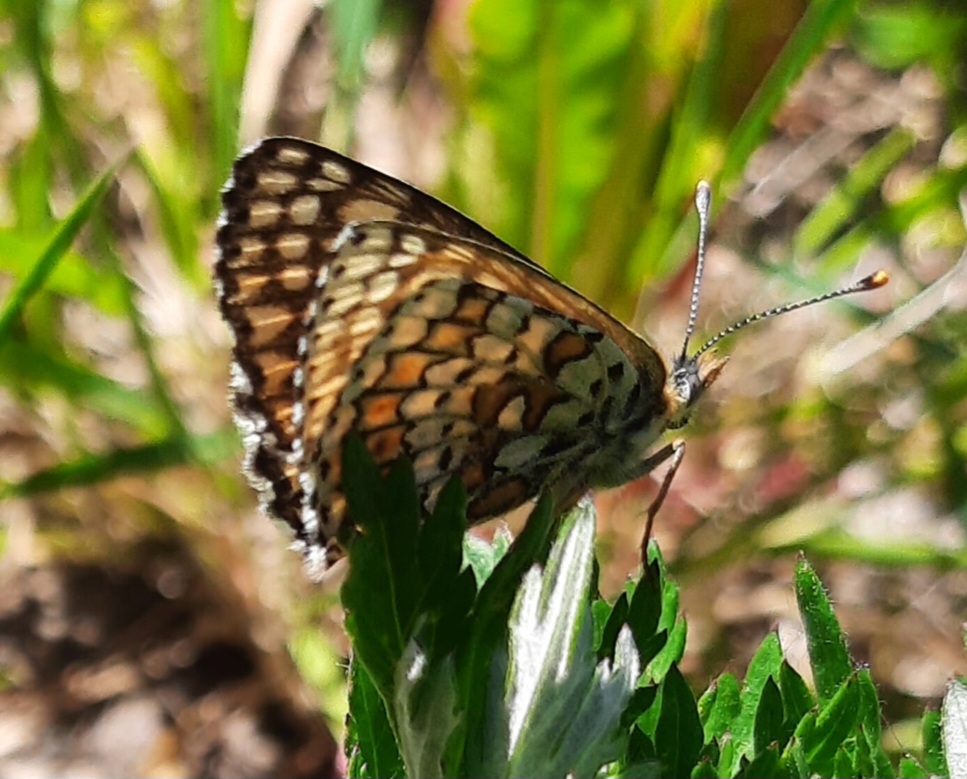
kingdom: Animalia
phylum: Arthropoda
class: Insecta
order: Lepidoptera
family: Nymphalidae
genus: Melitaea
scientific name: Melitaea cinxia
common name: Okkergul pletvinge
